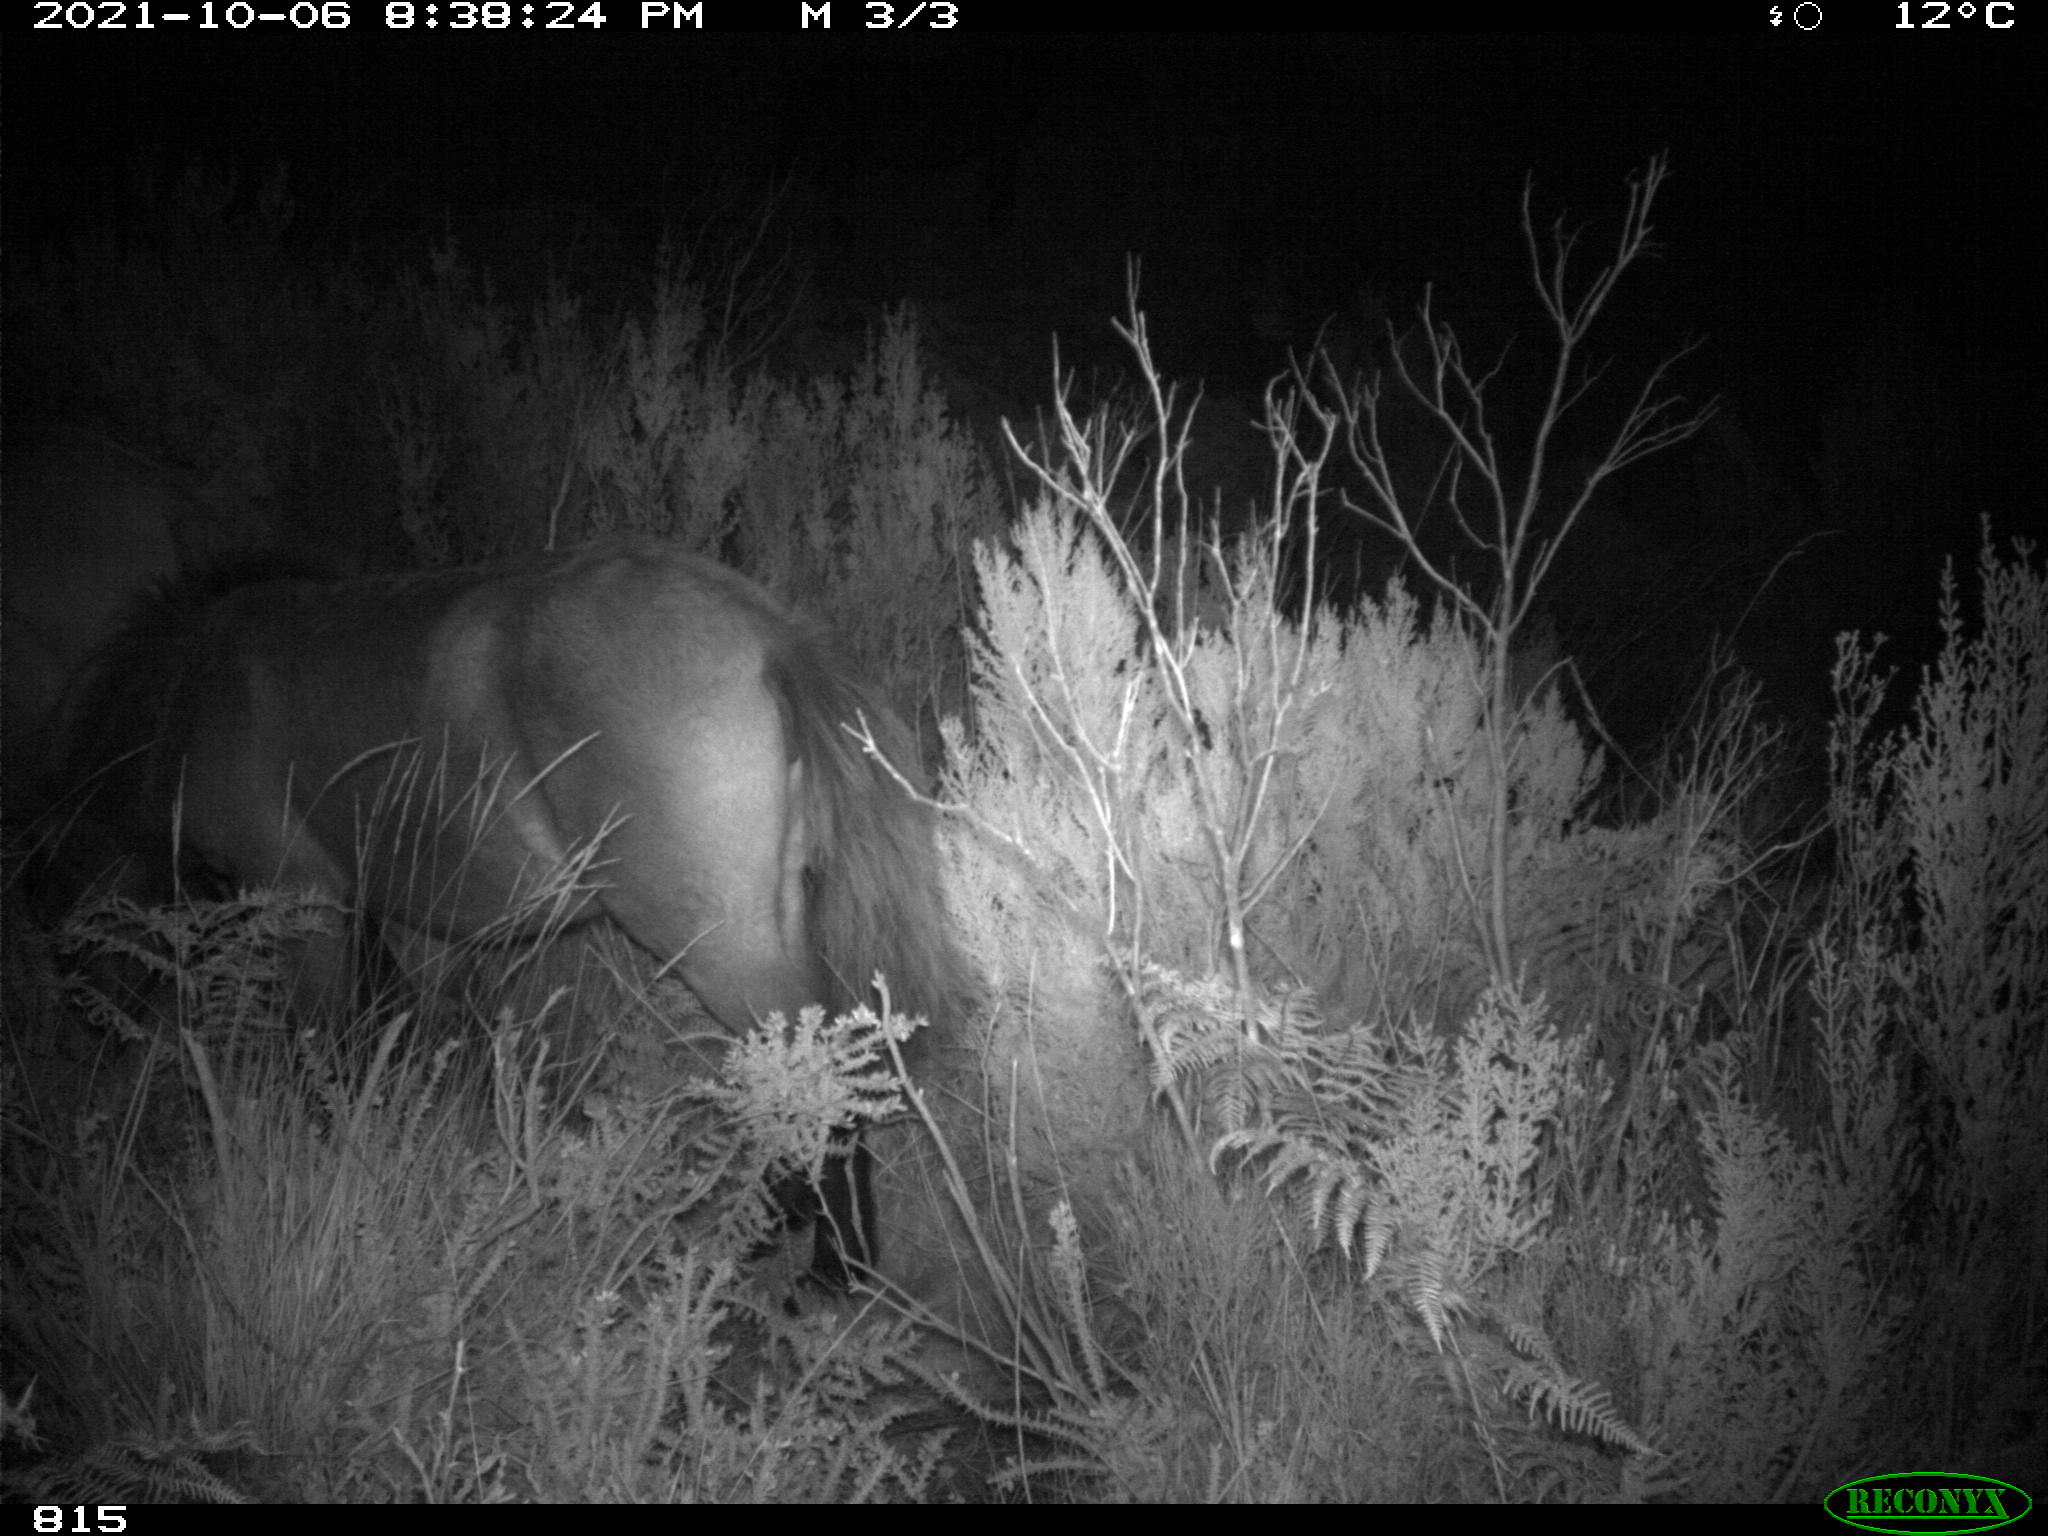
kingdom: Animalia
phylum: Chordata
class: Mammalia
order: Perissodactyla
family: Equidae
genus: Equus
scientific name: Equus caballus
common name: Horse
